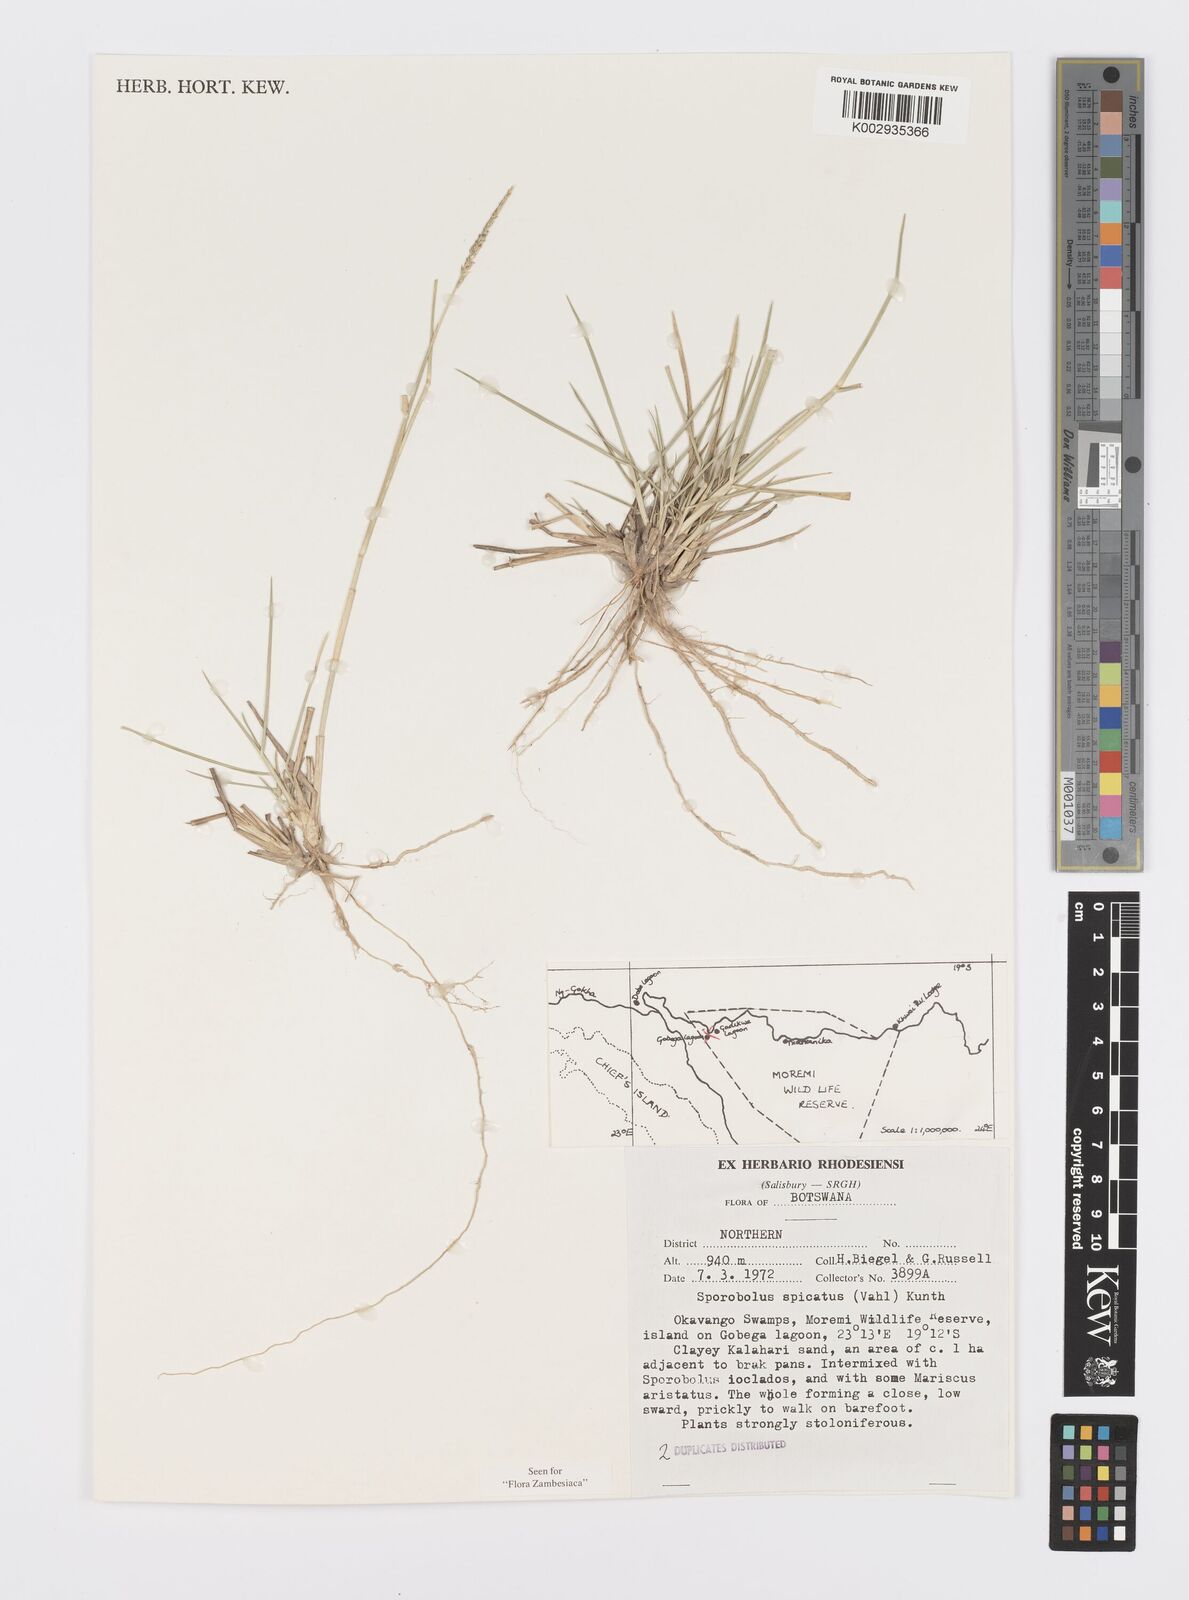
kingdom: Plantae
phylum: Tracheophyta
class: Liliopsida
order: Poales
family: Poaceae
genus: Sporobolus
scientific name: Sporobolus spicatus
